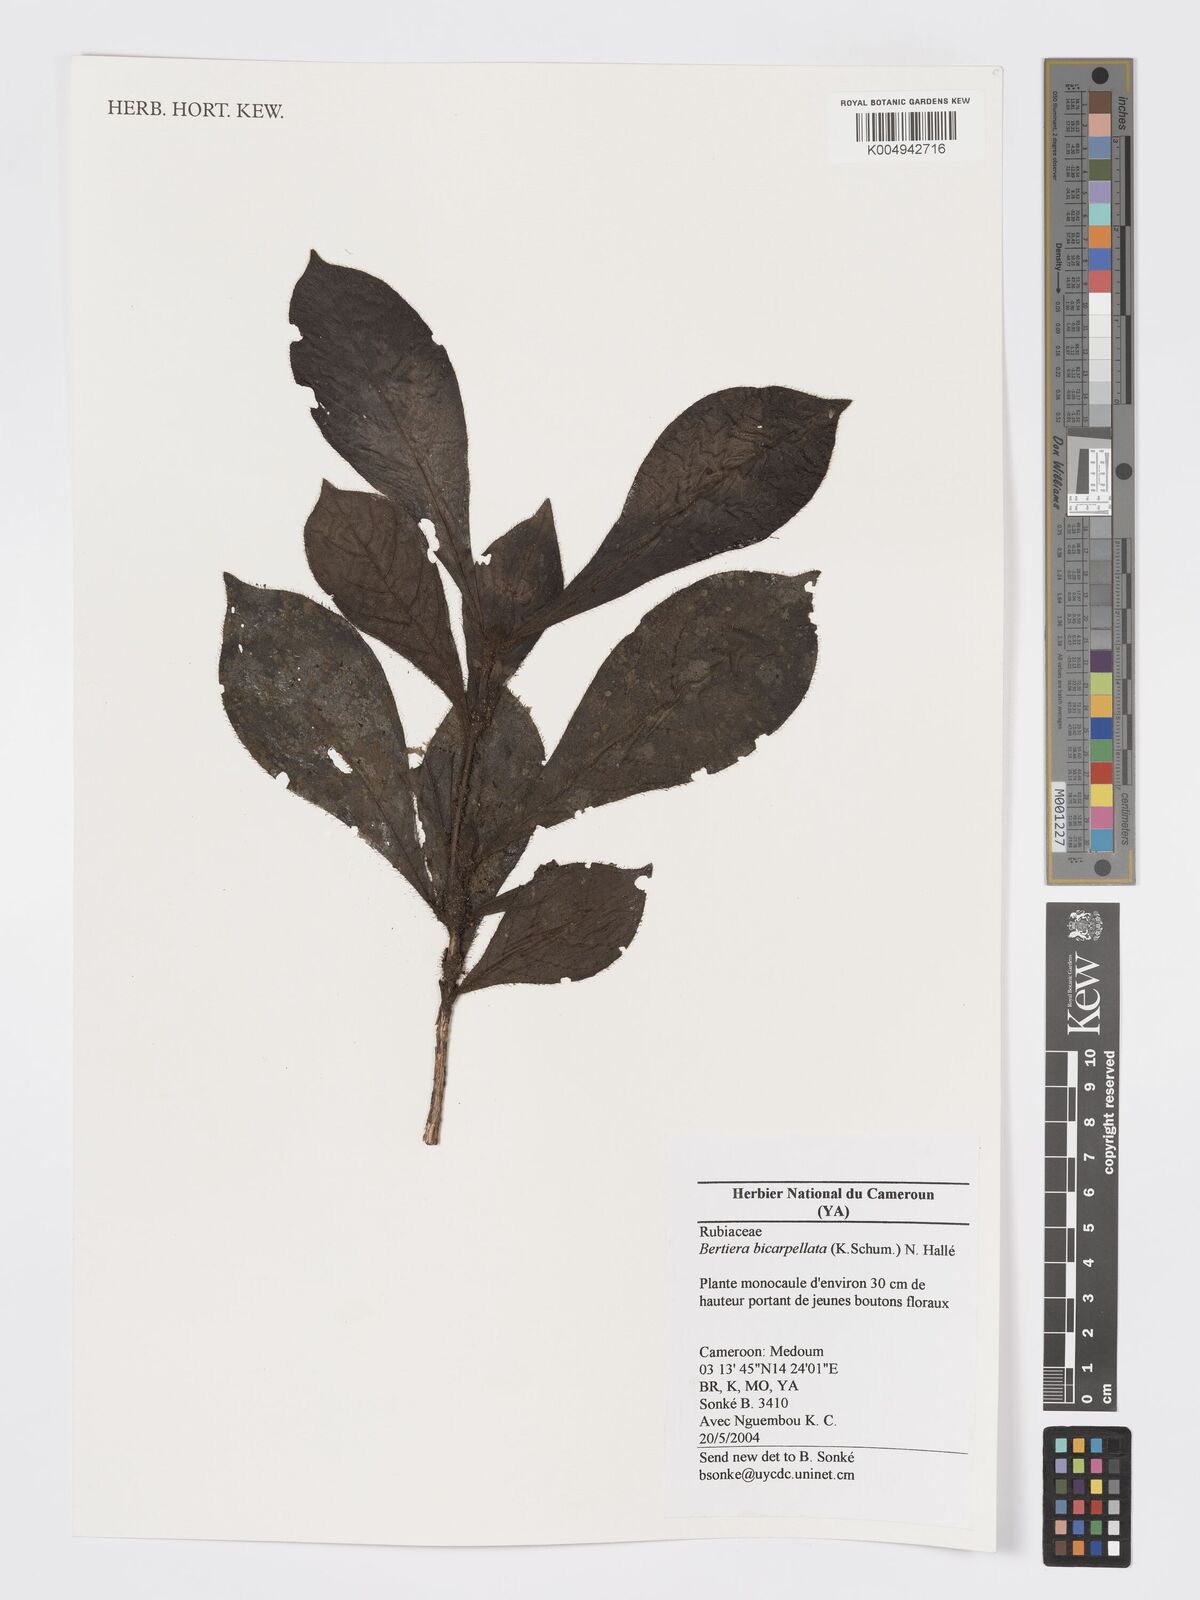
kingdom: Plantae
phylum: Tracheophyta
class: Magnoliopsida
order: Gentianales
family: Rubiaceae
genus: Bertiera
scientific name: Bertiera bicarpellata
